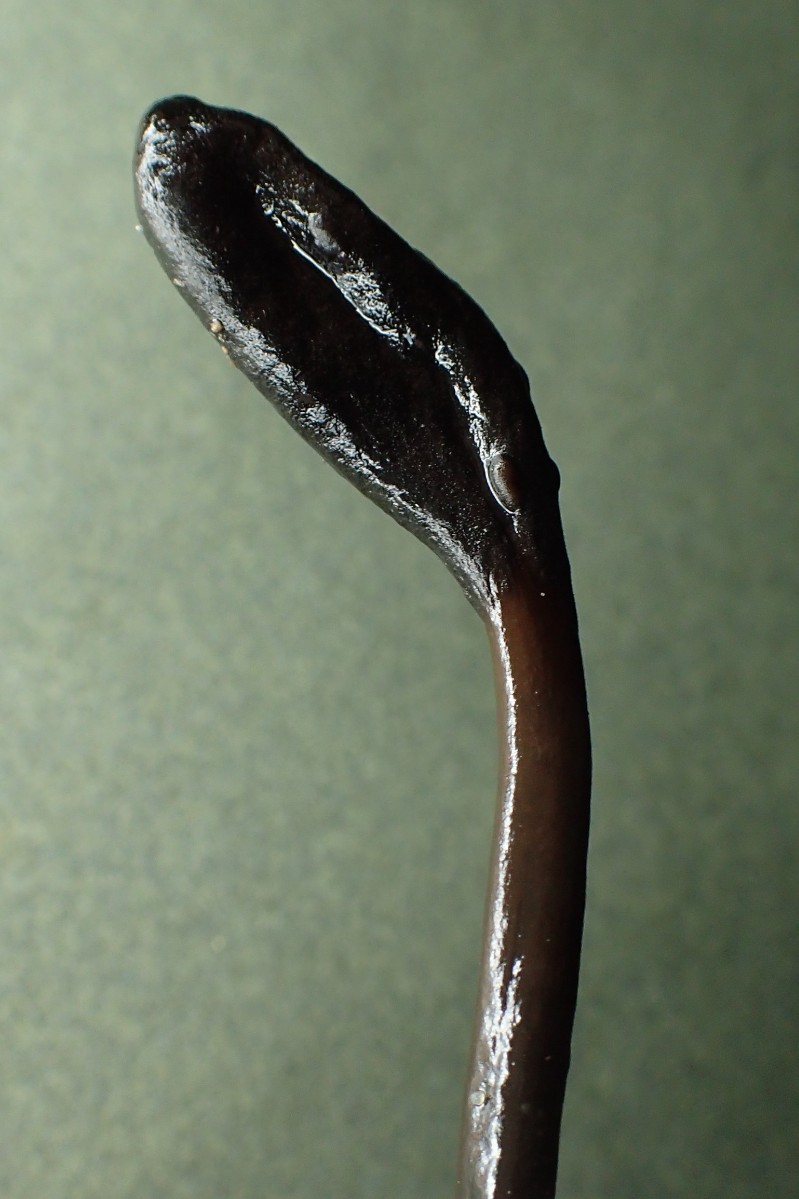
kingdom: Fungi
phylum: Ascomycota
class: Geoglossomycetes
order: Geoglossales
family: Geoglossaceae
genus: Glutinoglossum
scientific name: Glutinoglossum glutinosum
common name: slimet jordtunge
